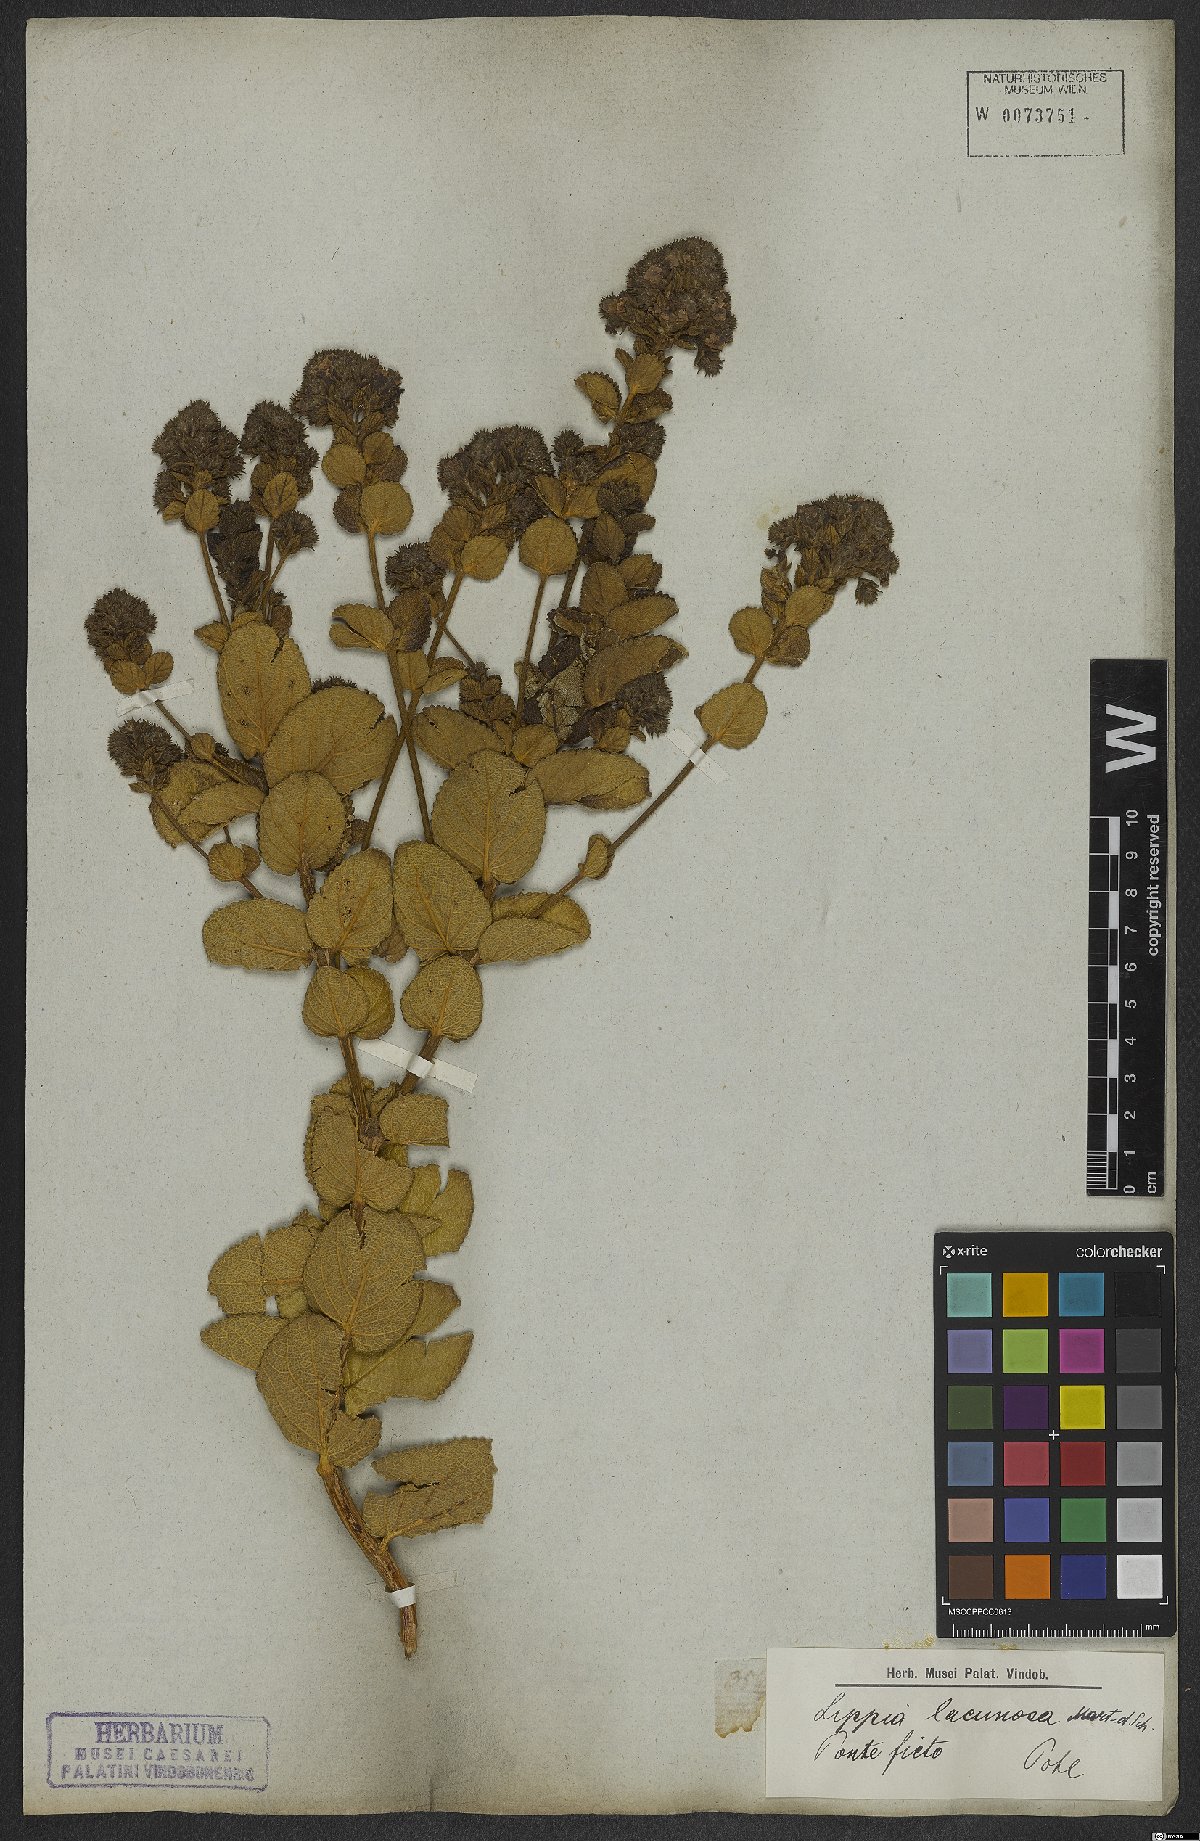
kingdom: Plantae
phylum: Tracheophyta
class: Magnoliopsida
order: Lamiales
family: Verbenaceae
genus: Lippia
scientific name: Lippia lacunosa
